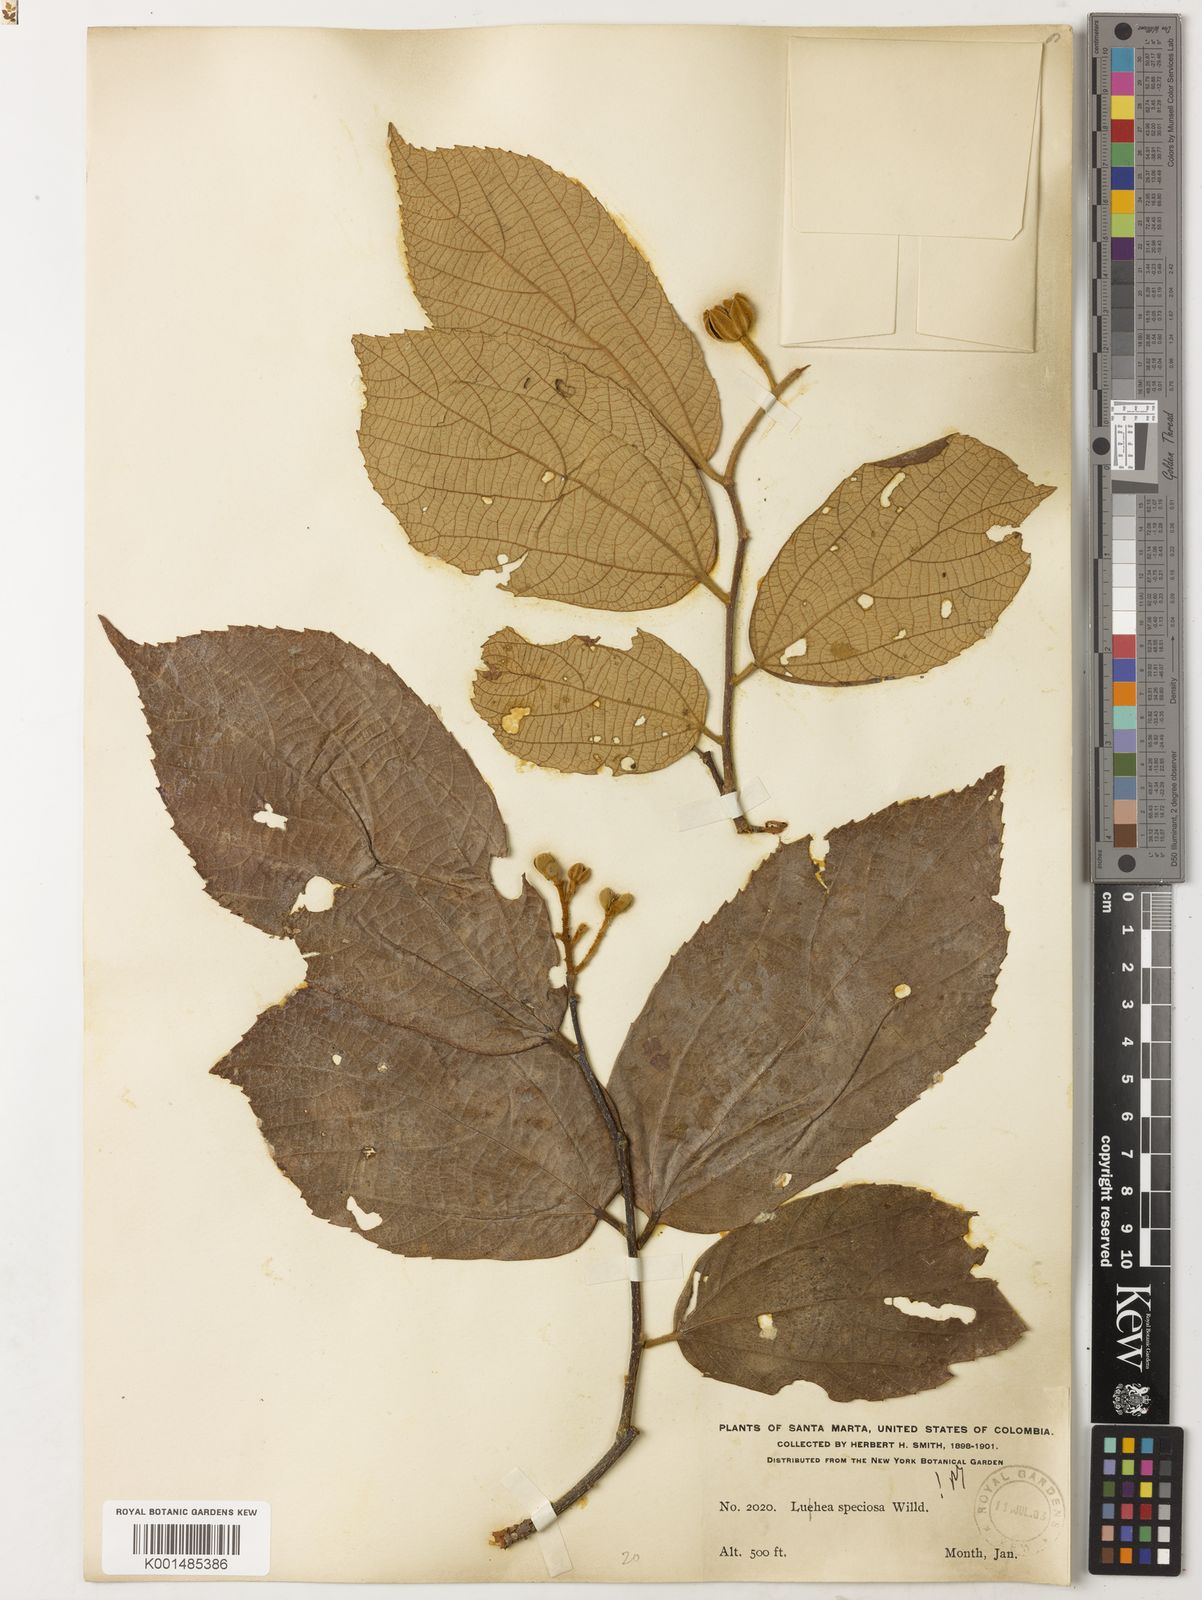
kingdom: Plantae
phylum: Tracheophyta
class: Magnoliopsida
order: Malvales
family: Malvaceae
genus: Luehea
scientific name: Luehea speciosa
